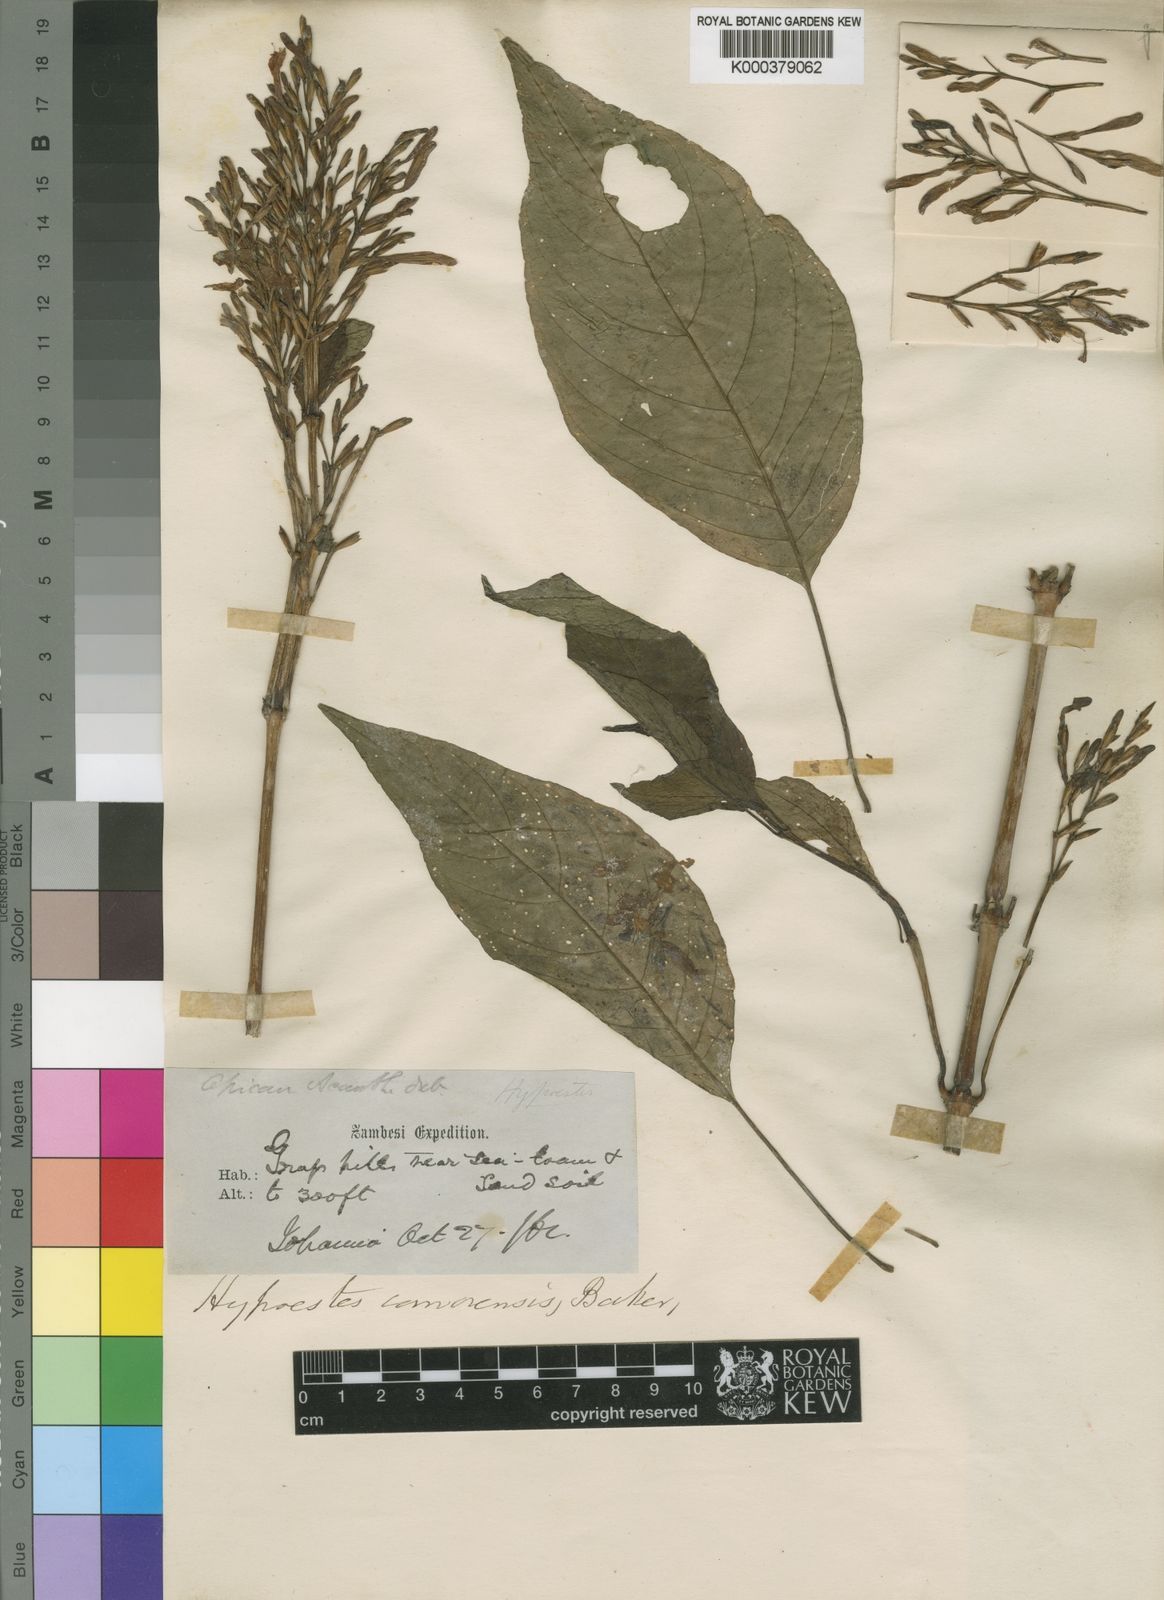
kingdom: Plantae
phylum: Tracheophyta
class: Magnoliopsida
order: Lamiales
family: Acanthaceae
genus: Hypoestes
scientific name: Hypoestes comorensis
